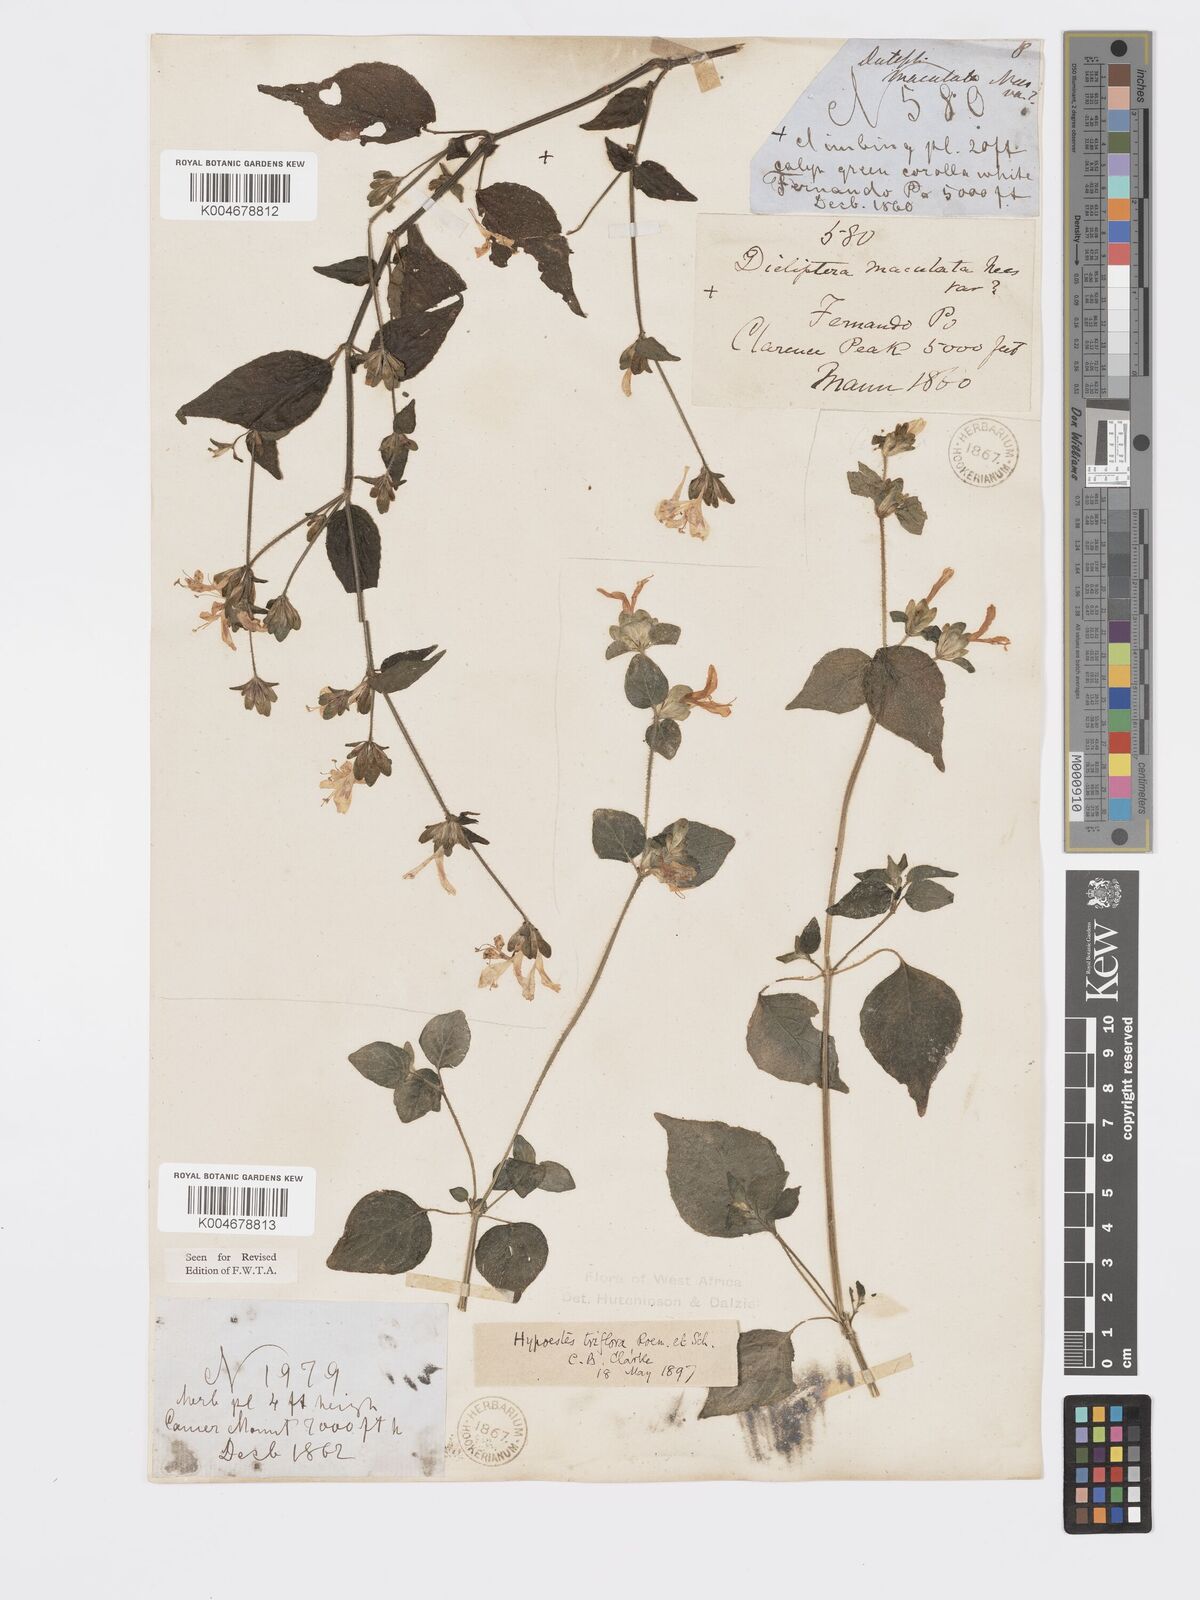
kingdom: Plantae
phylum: Tracheophyta
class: Magnoliopsida
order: Lamiales
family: Acanthaceae
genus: Hypoestes
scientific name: Hypoestes triflora
